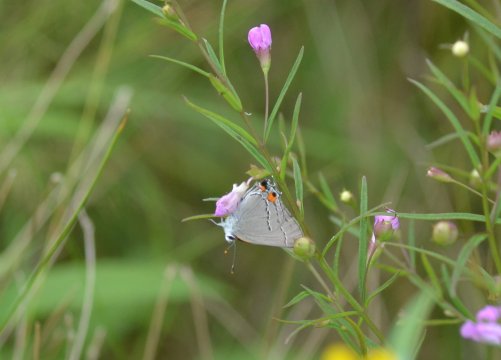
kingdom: Animalia
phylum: Arthropoda
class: Insecta
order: Lepidoptera
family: Lycaenidae
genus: Strymon
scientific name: Strymon melinus
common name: Gray Hairstreak
